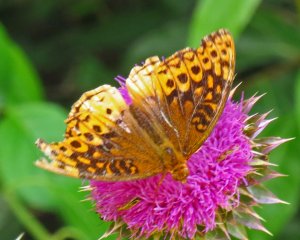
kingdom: Animalia
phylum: Arthropoda
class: Insecta
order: Lepidoptera
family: Nymphalidae
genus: Speyeria
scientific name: Speyeria cybele
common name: Great Spangled Fritillary
